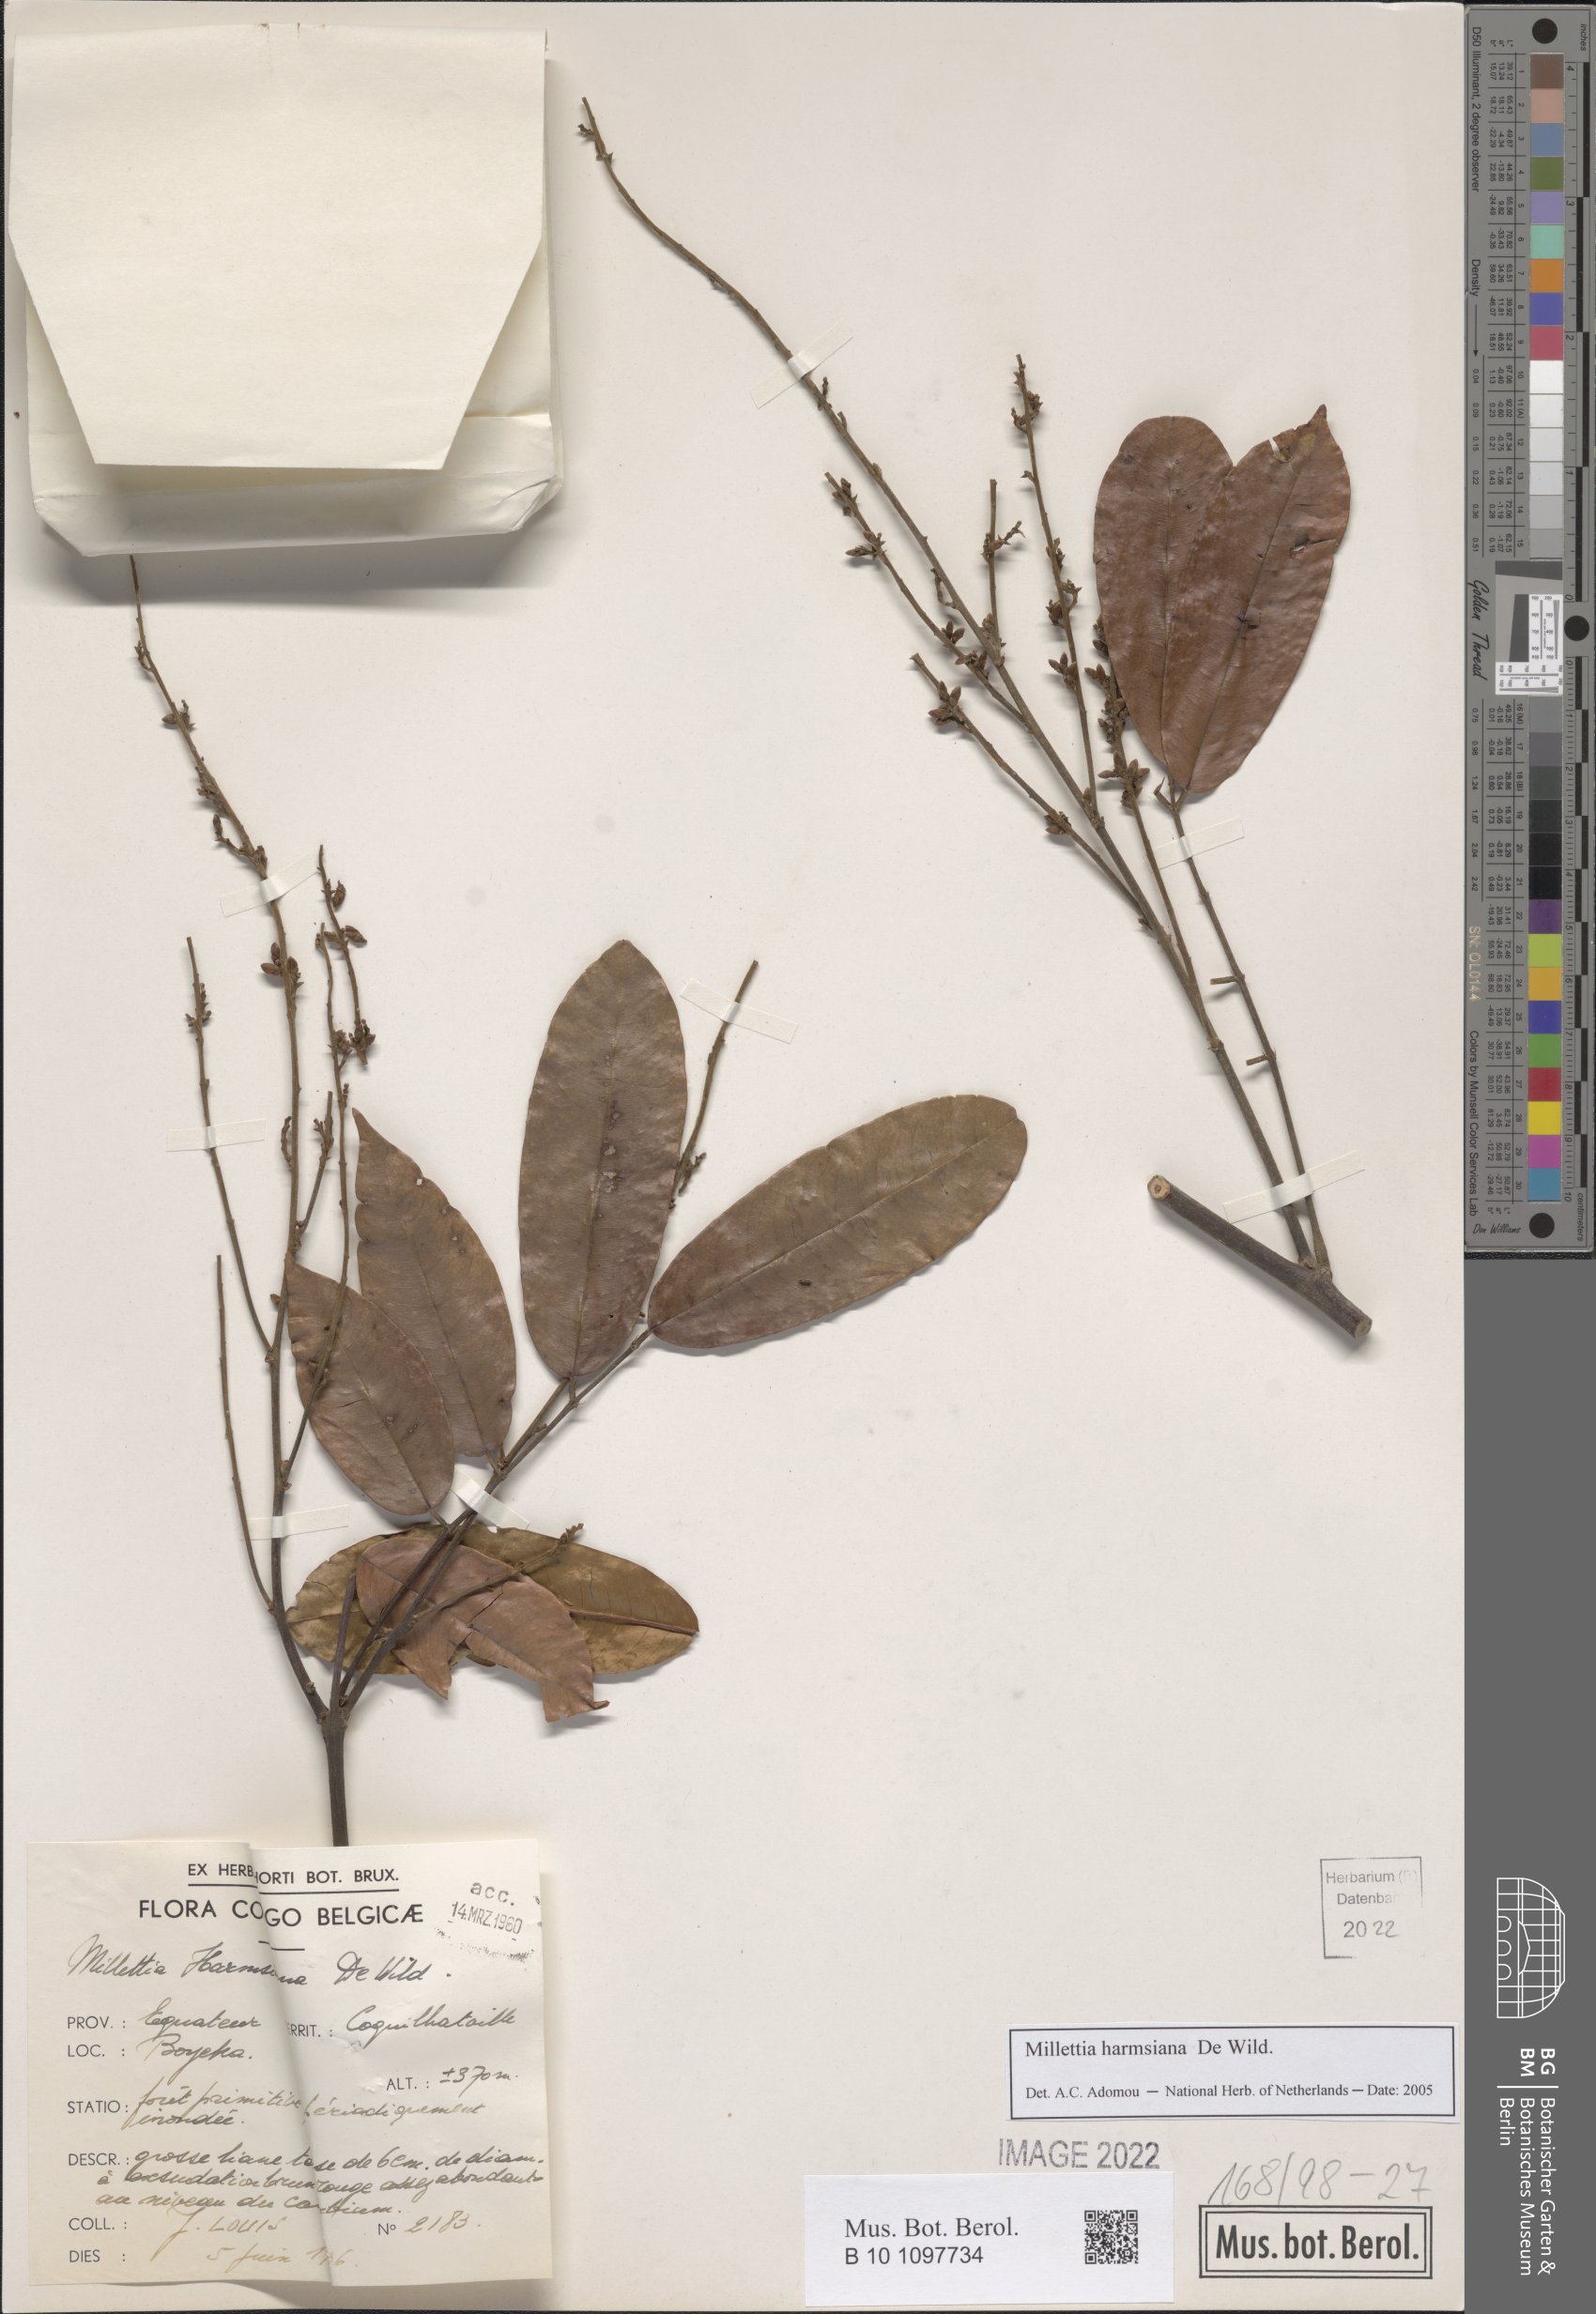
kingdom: Plantae
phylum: Tracheophyta
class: Magnoliopsida
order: Fabales
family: Fabaceae
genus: Millettia
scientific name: Millettia macroura
